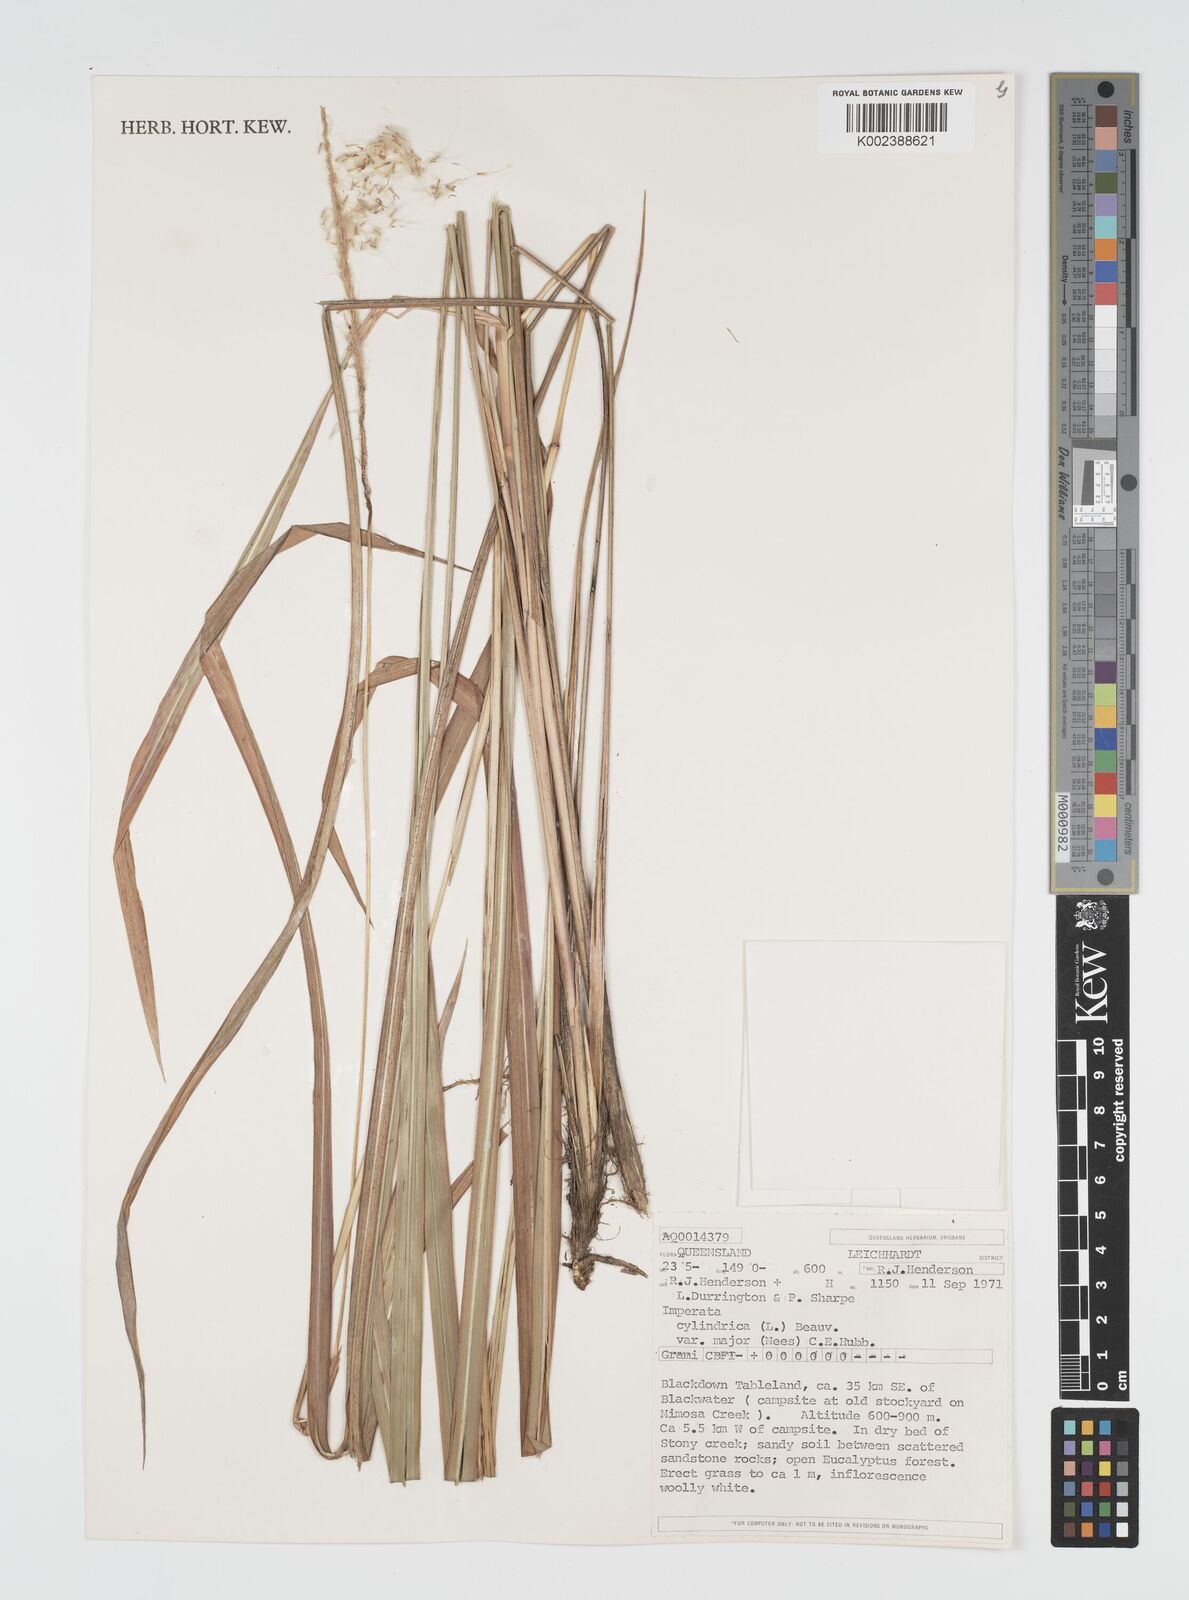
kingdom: Plantae
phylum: Tracheophyta
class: Liliopsida
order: Poales
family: Poaceae
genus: Imperata
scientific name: Imperata cylindrica
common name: Cogongrass
